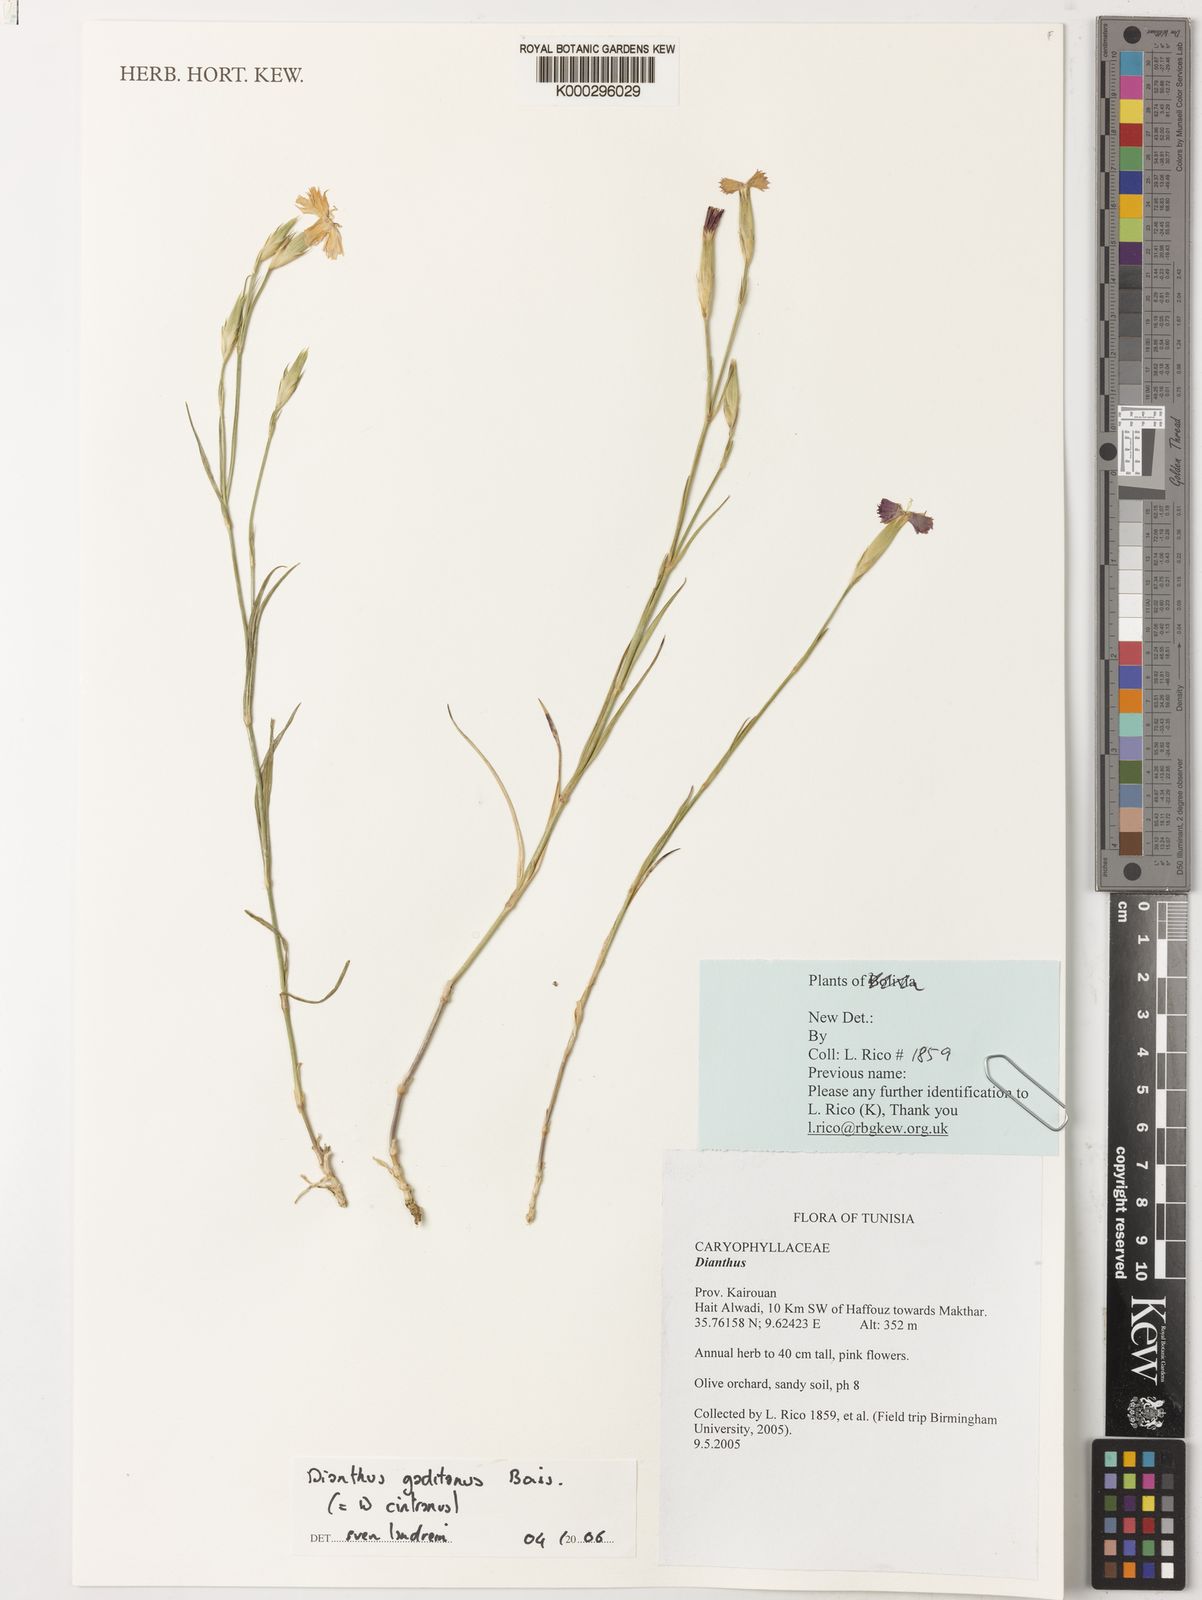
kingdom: Plantae
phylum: Tracheophyta
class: Magnoliopsida
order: Caryophyllales
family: Caryophyllaceae
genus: Dianthus
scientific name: Dianthus anticarius
